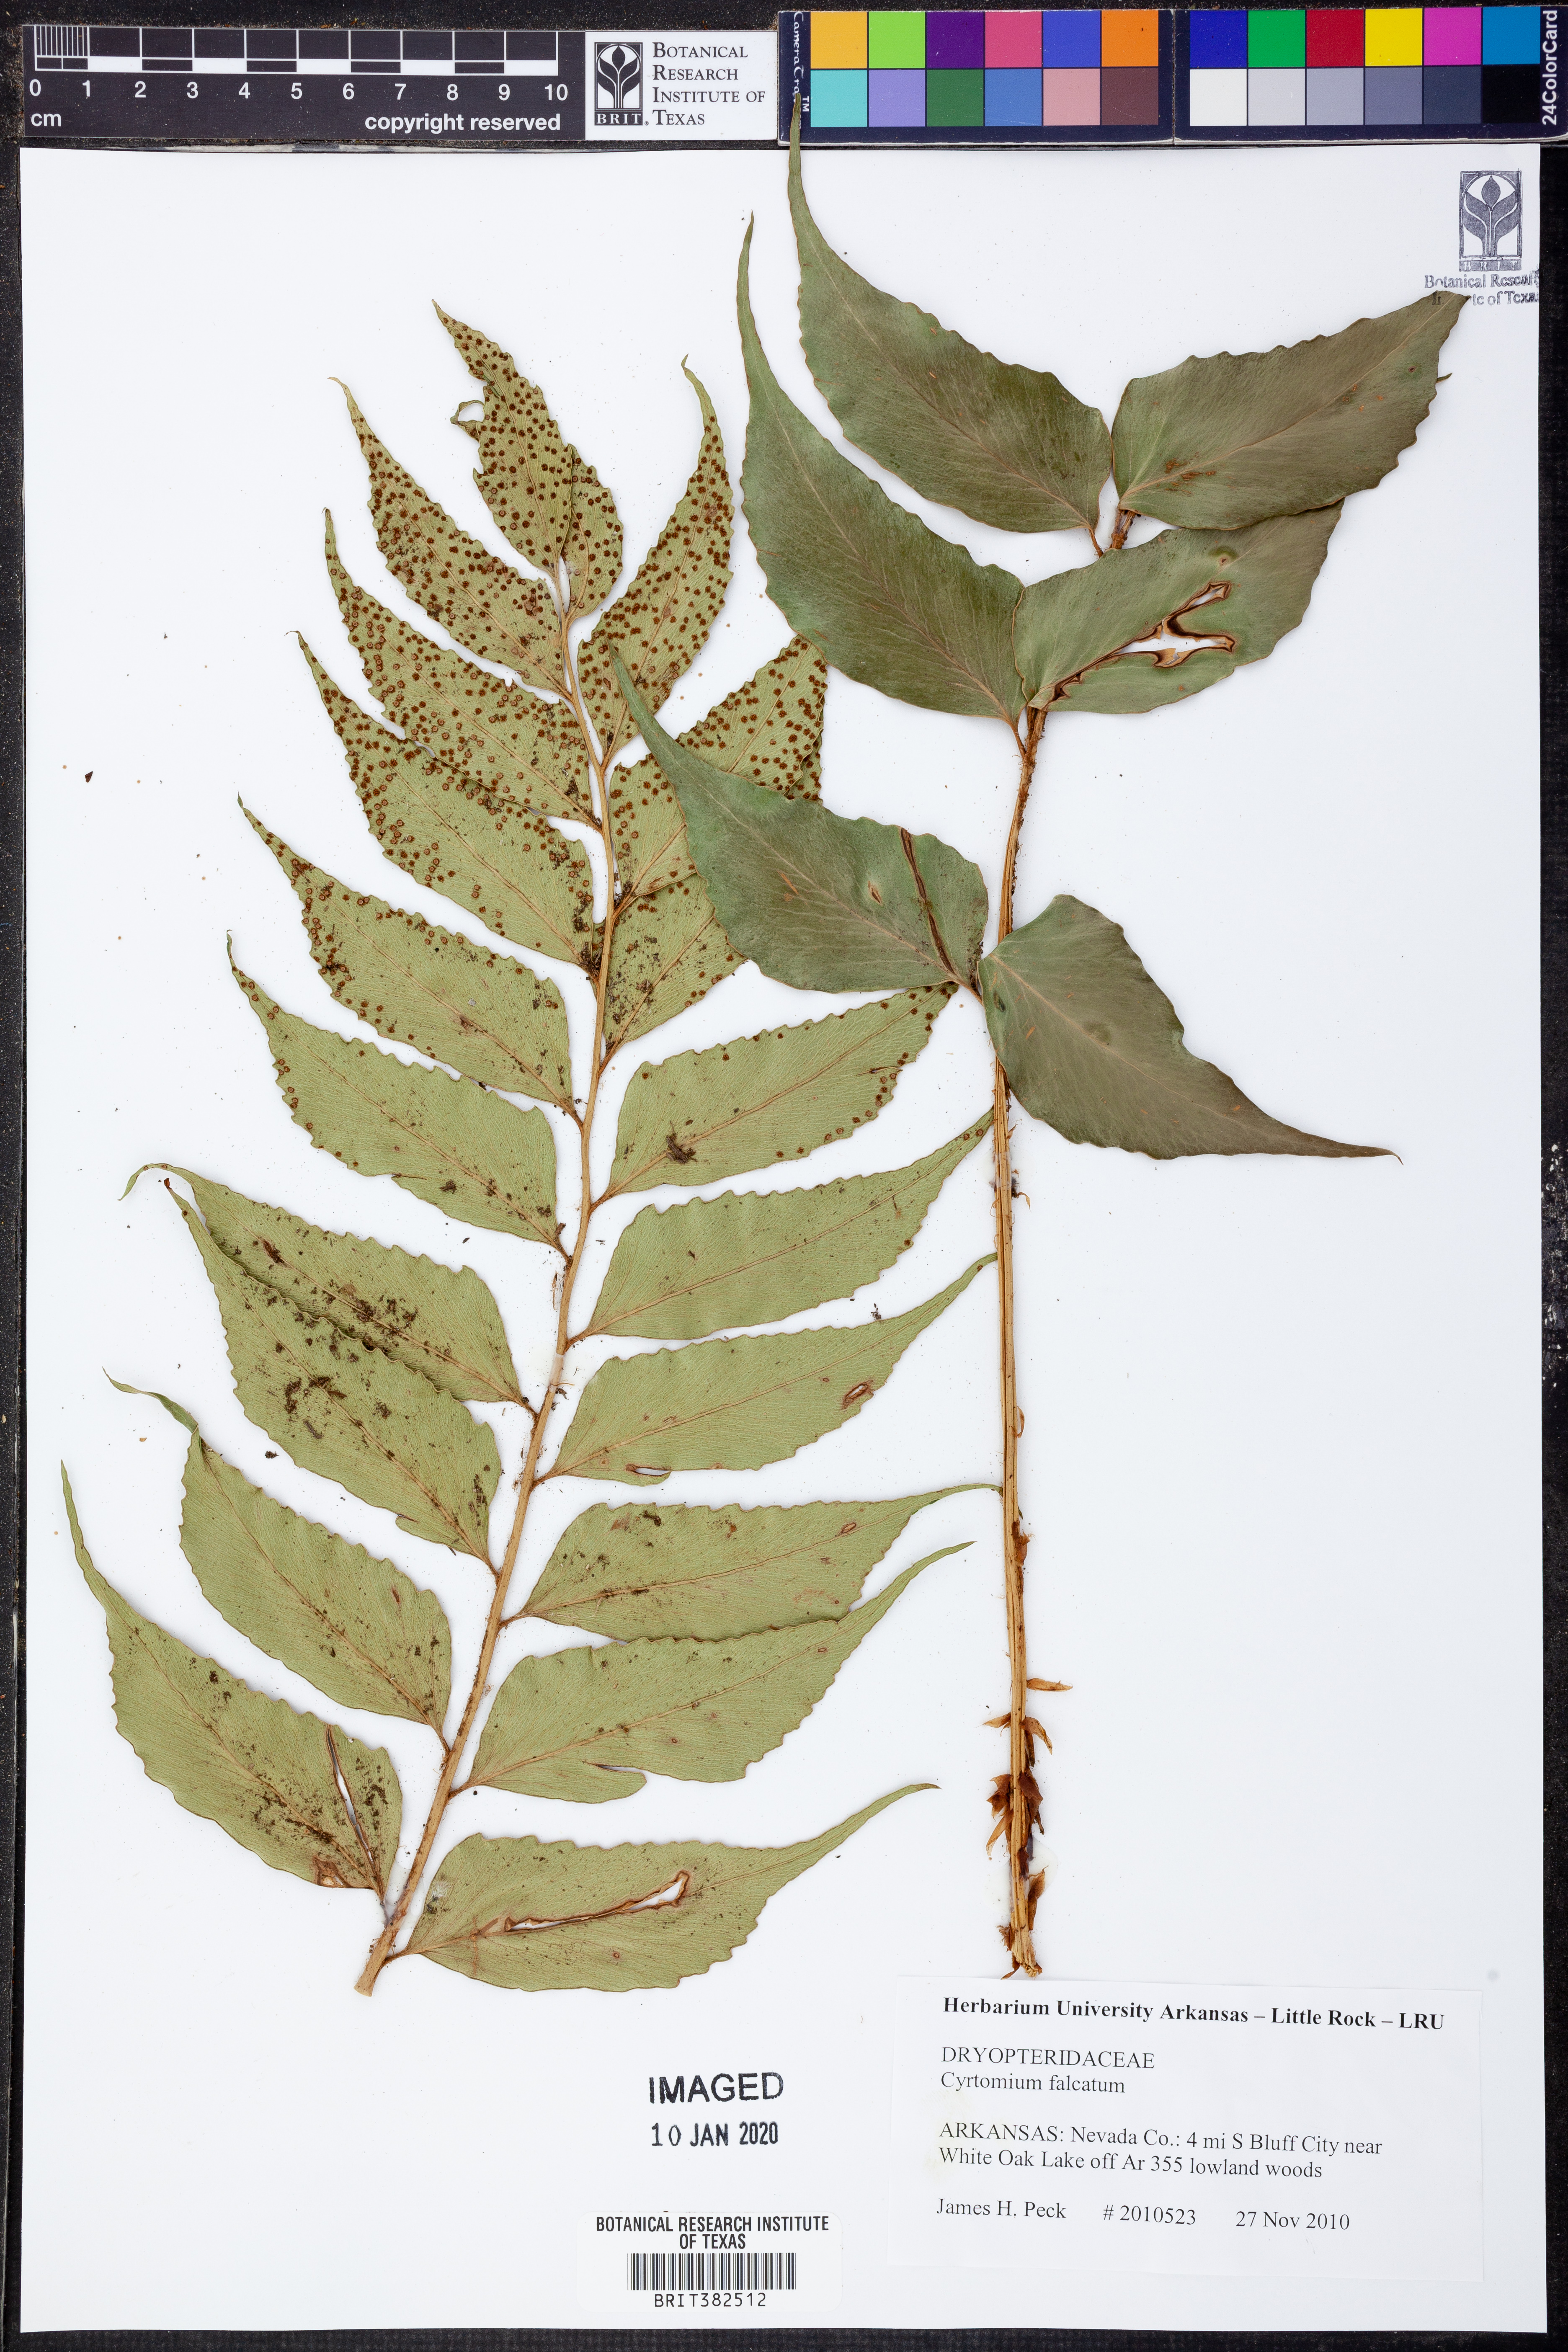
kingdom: Plantae
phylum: Tracheophyta
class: Polypodiopsida
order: Polypodiales
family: Dryopteridaceae
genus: Cyrtomium
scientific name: Cyrtomium falcatum
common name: House holly-fern
